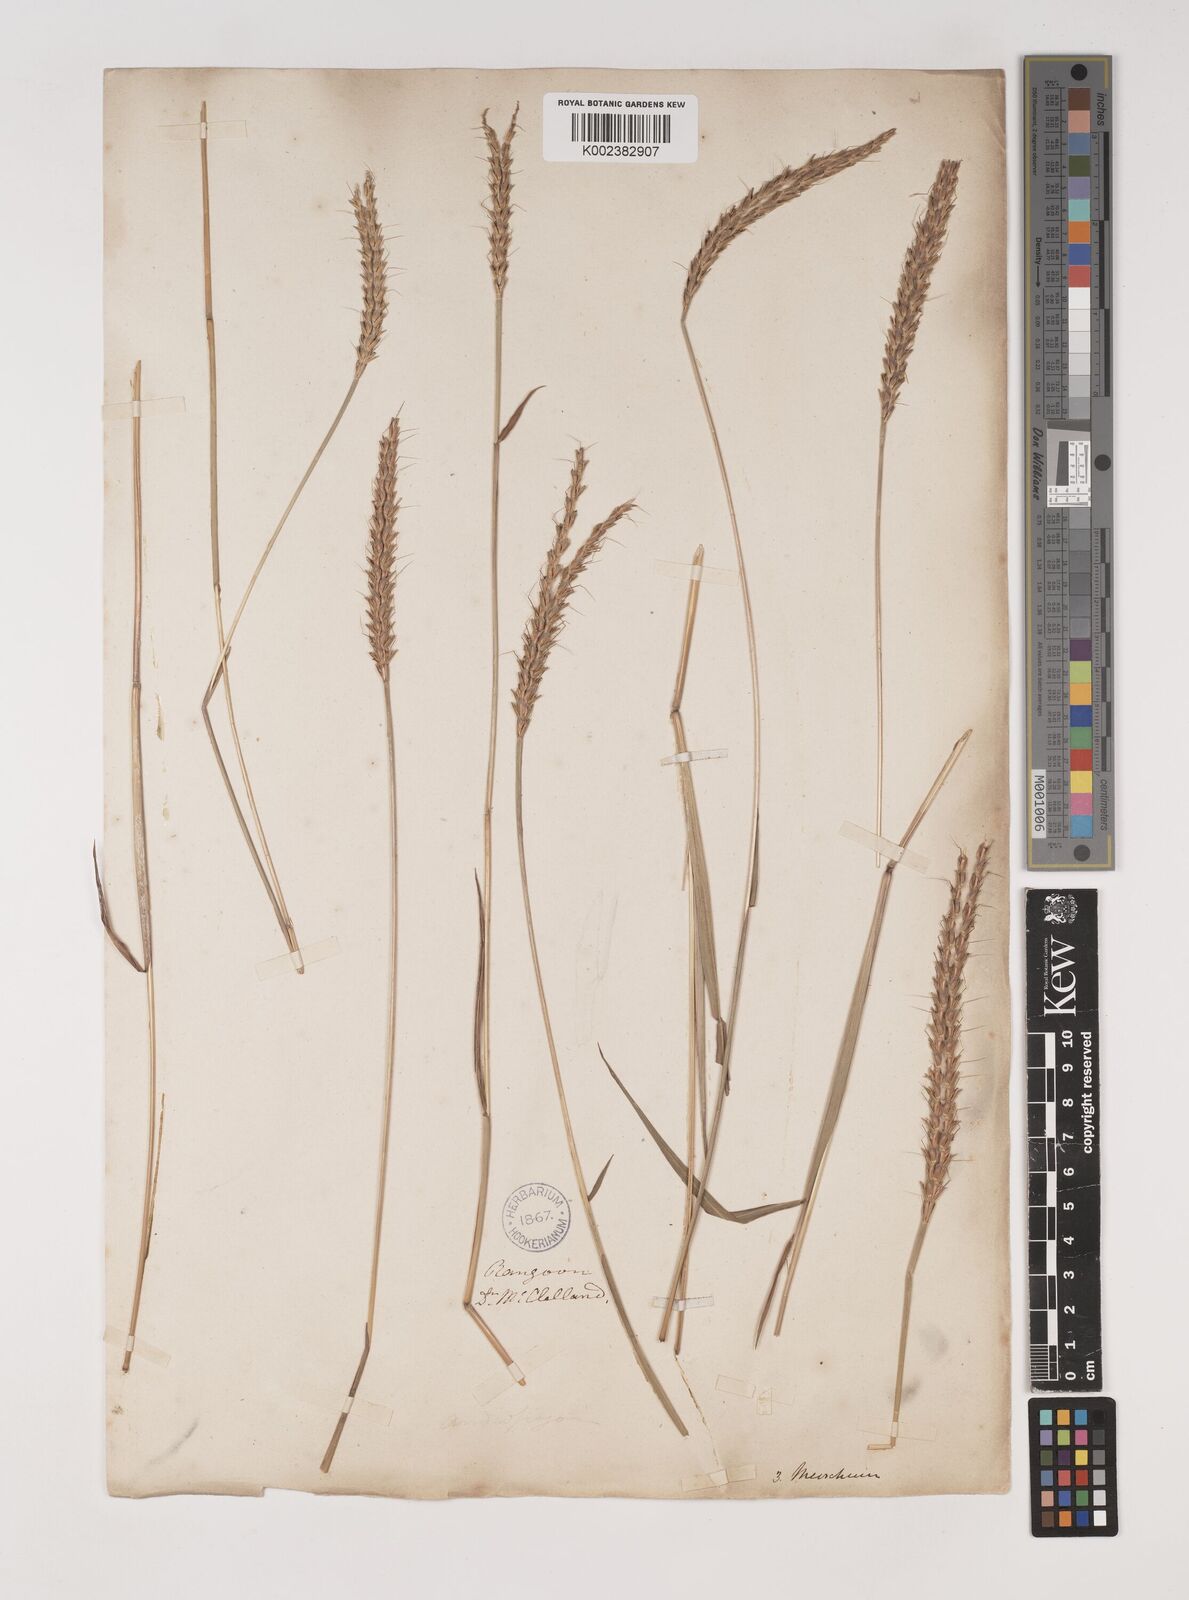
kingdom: Plantae
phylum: Tracheophyta
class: Liliopsida
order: Poales
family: Poaceae
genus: Ischaemum
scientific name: Ischaemum
